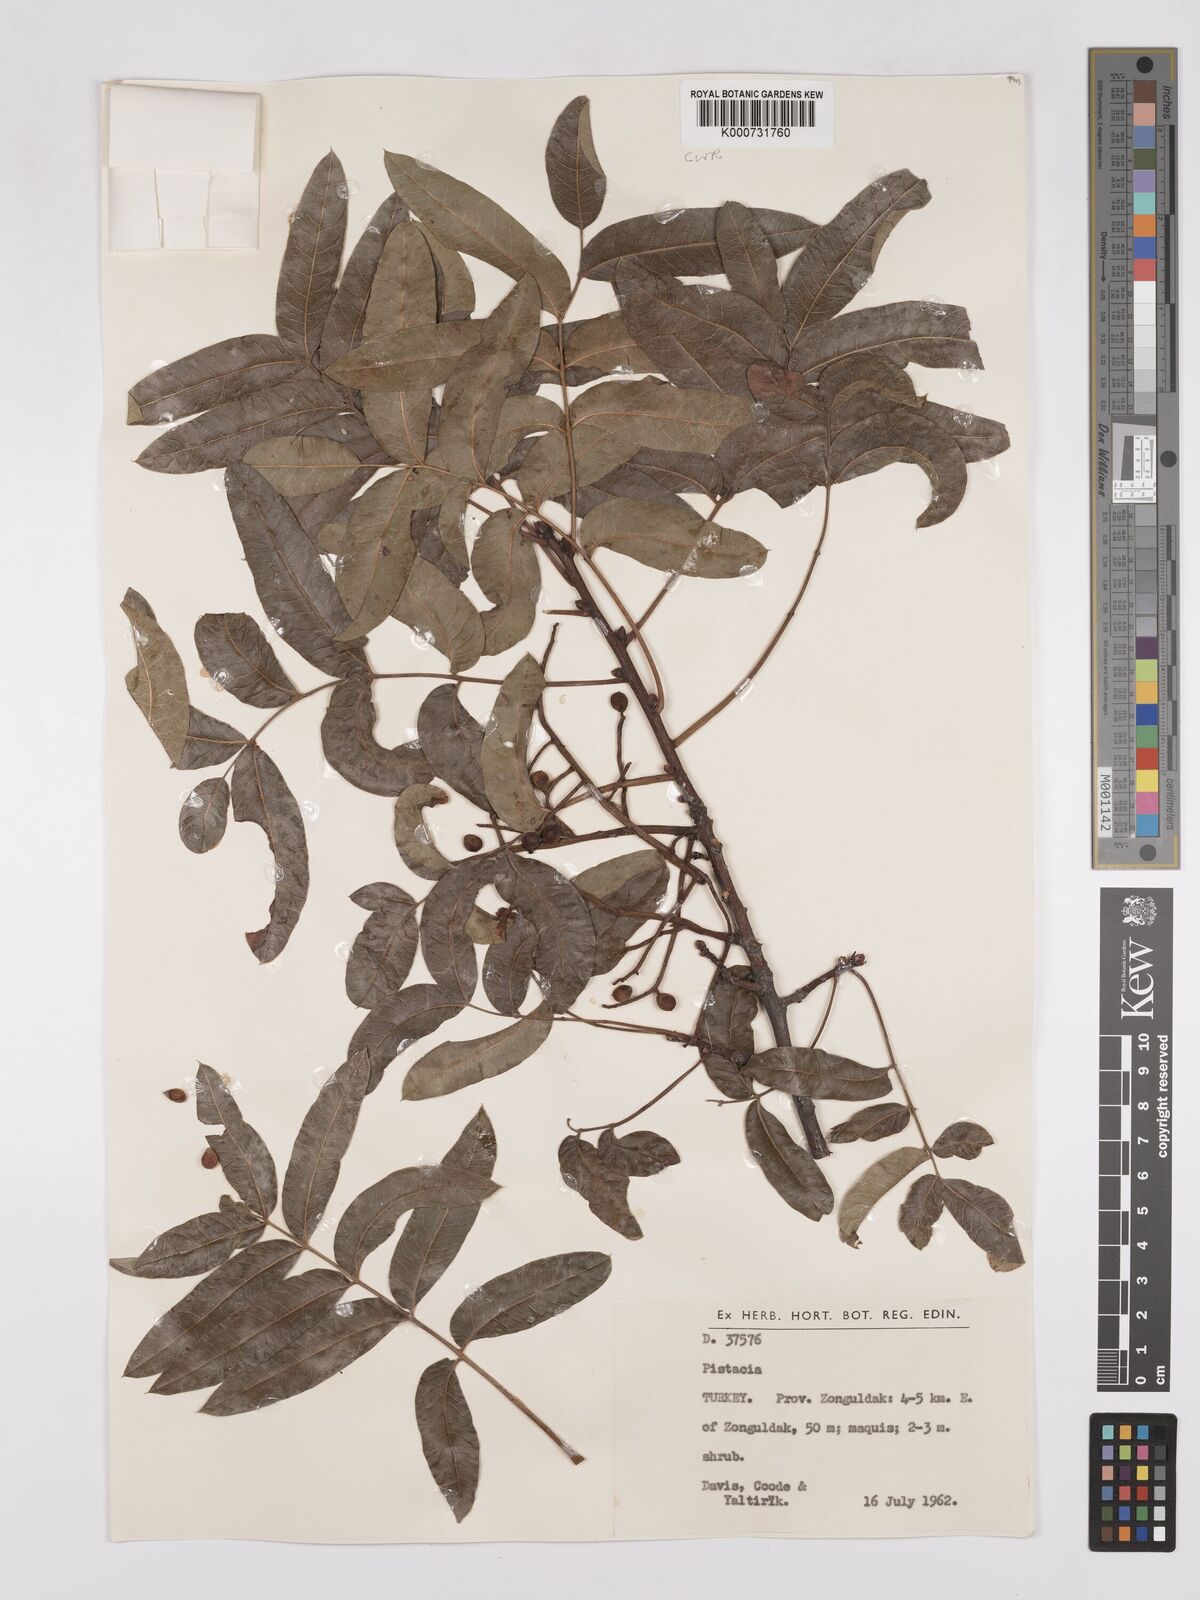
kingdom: Plantae
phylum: Tracheophyta
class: Magnoliopsida
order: Sapindales
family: Anacardiaceae
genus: Pistacia
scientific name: Pistacia
